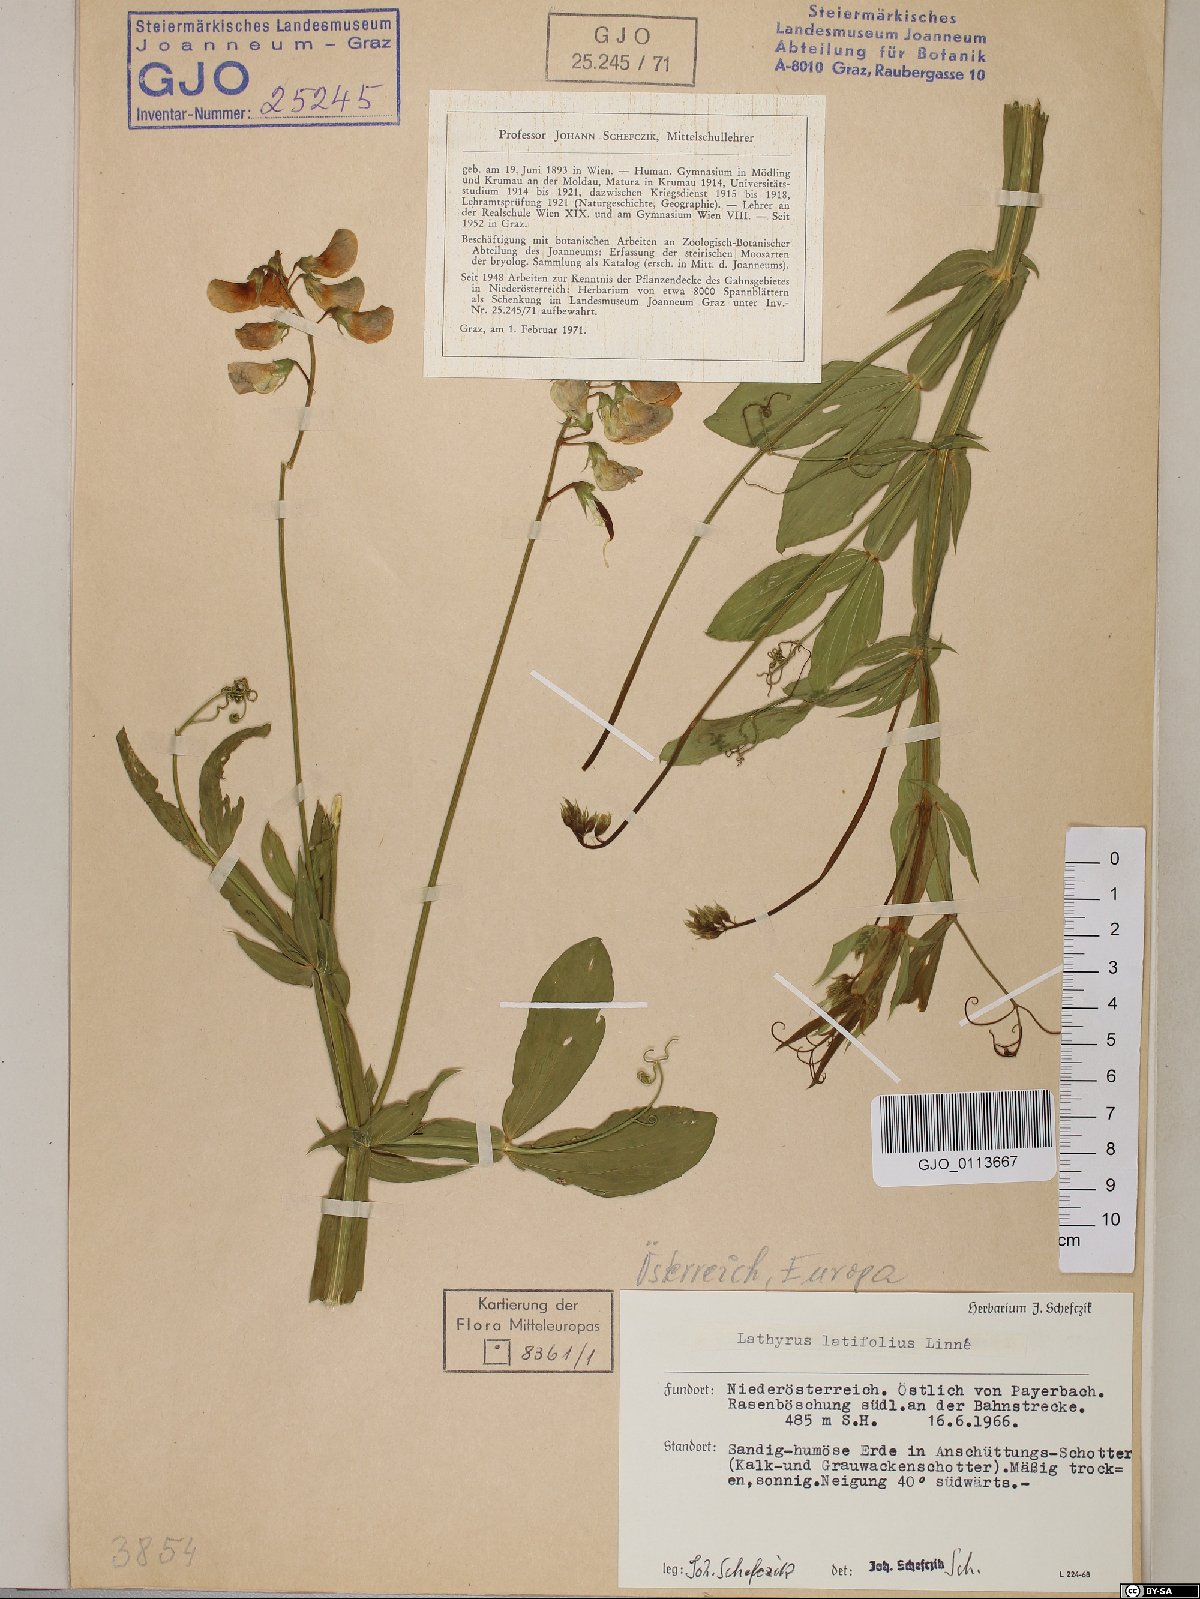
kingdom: Plantae
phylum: Tracheophyta
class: Magnoliopsida
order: Fabales
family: Fabaceae
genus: Lathyrus
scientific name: Lathyrus latifolius
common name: Perennial pea
